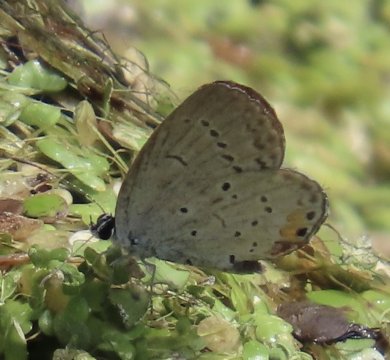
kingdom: Animalia
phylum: Arthropoda
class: Insecta
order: Lepidoptera
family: Lycaenidae
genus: Elkalyce
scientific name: Elkalyce comyntas
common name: Eastern Tailed-Blue
